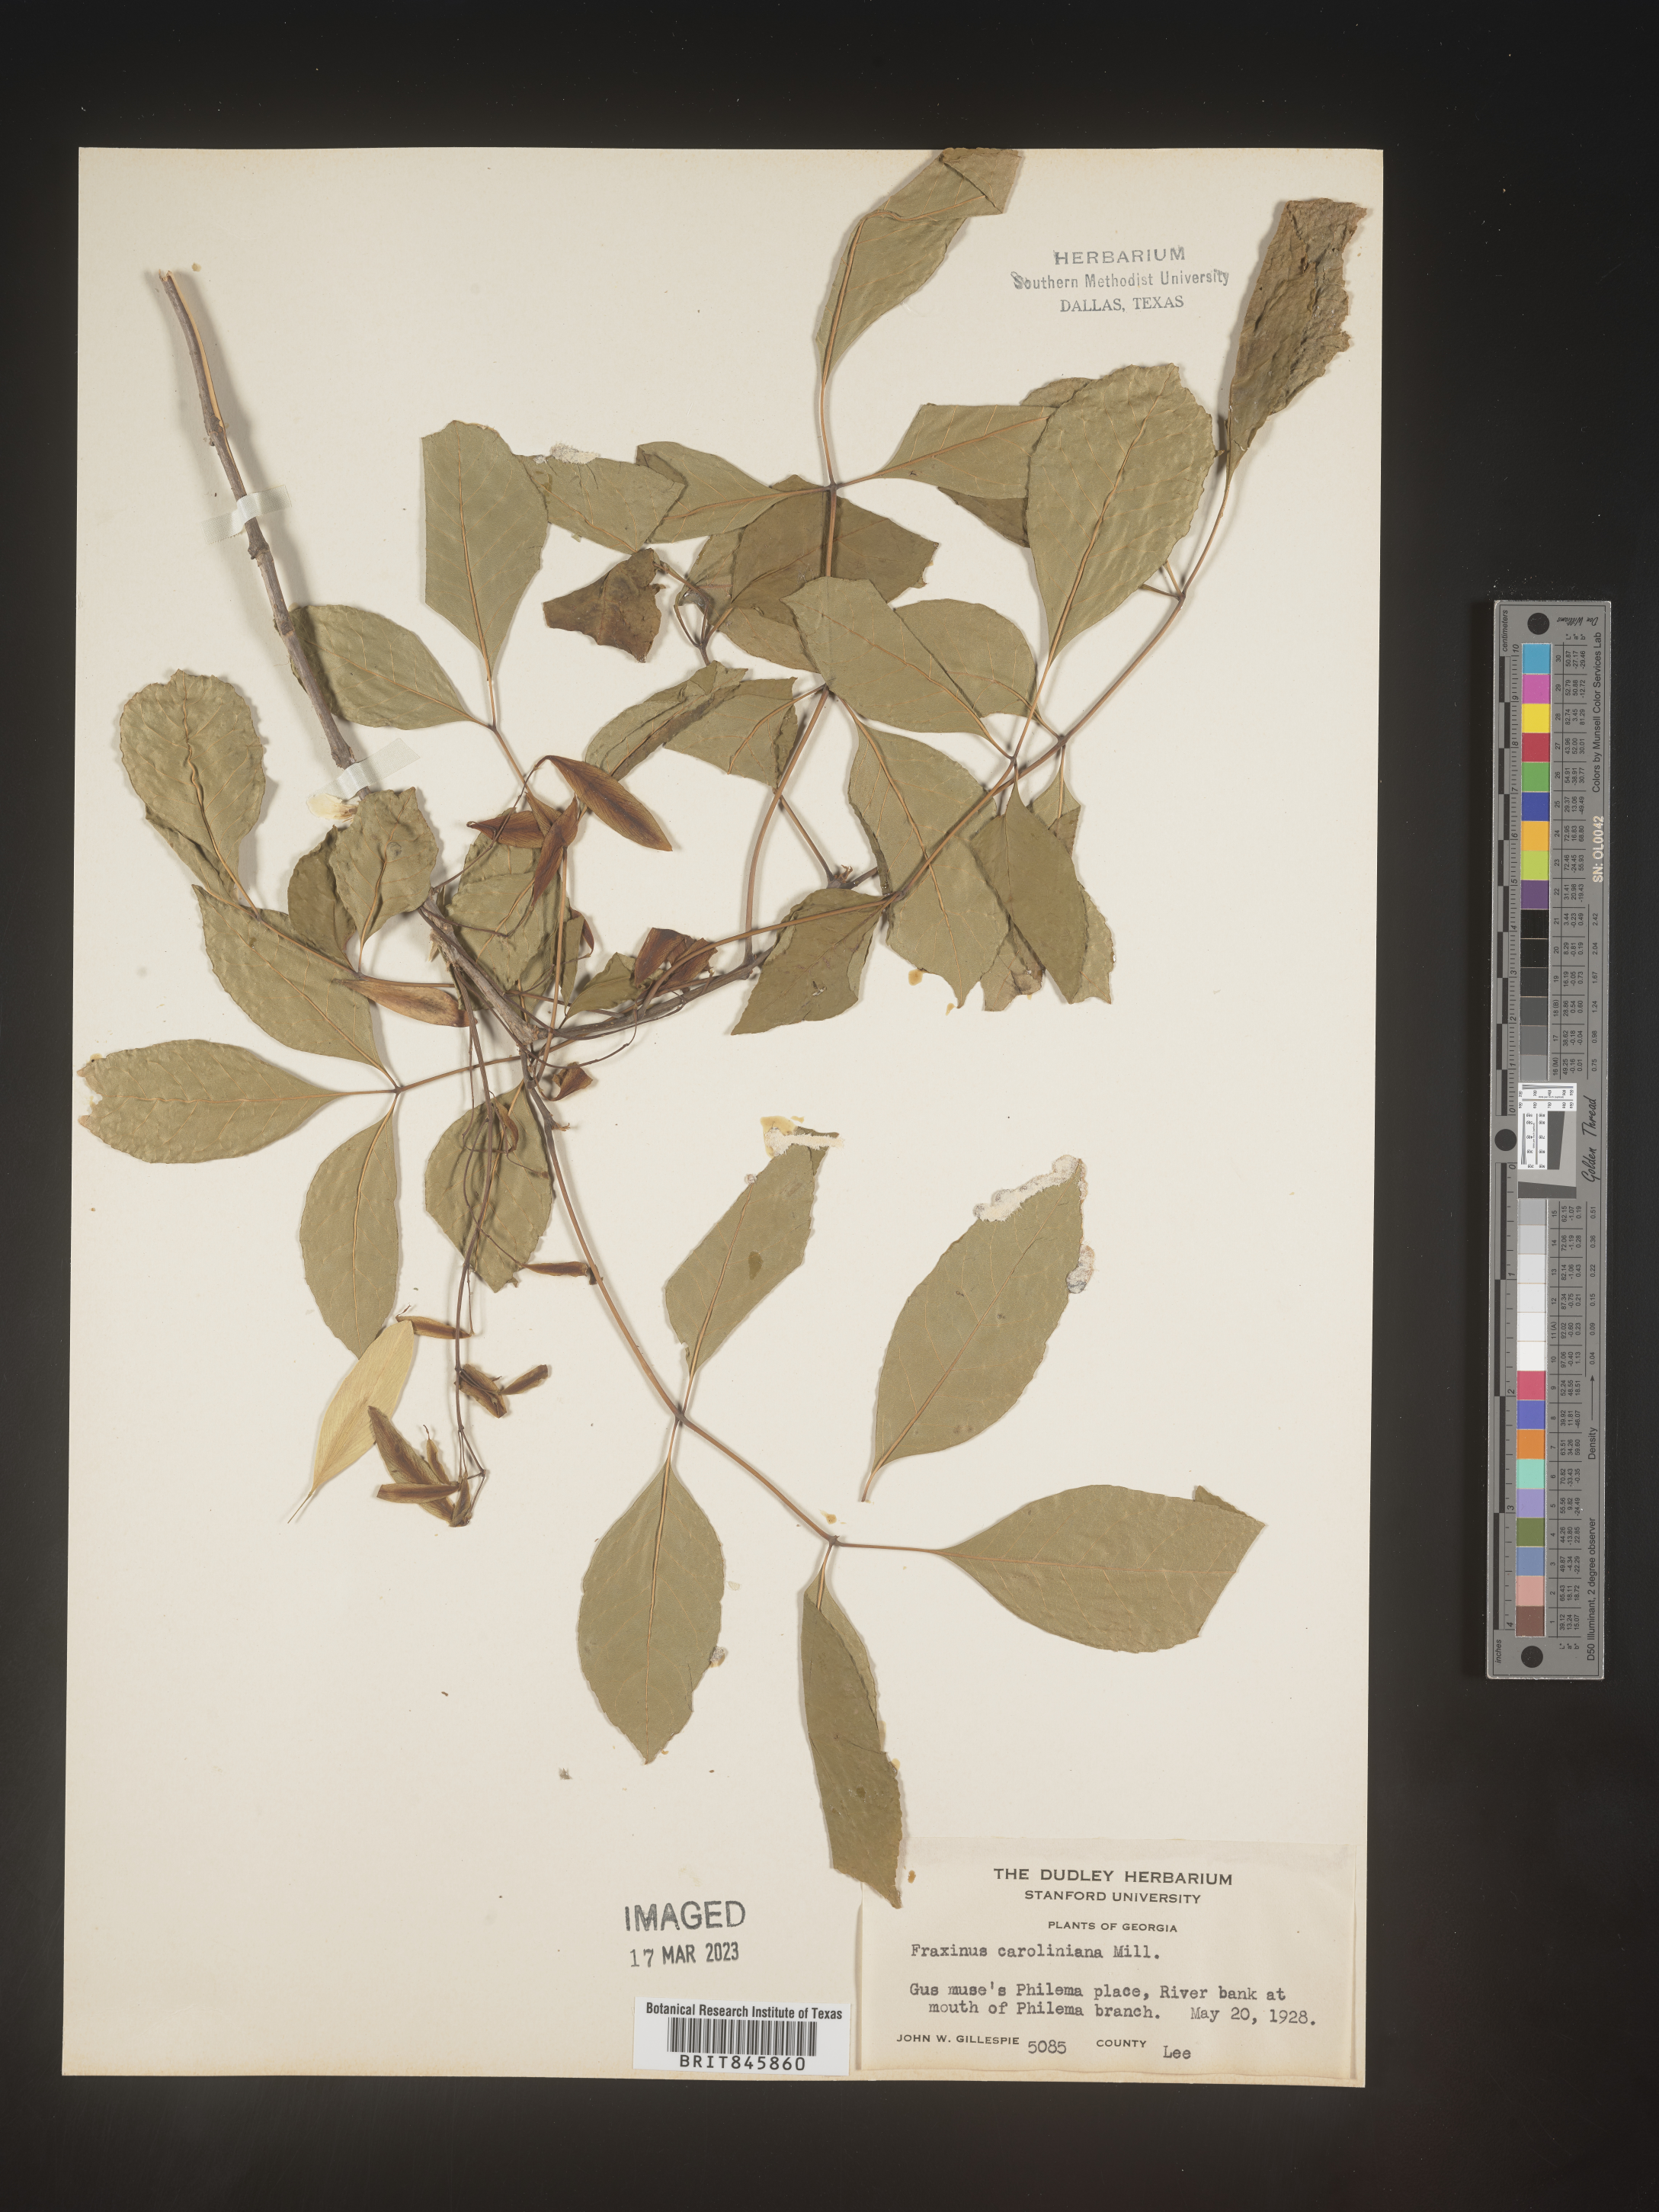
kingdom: Plantae
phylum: Tracheophyta
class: Magnoliopsida
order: Lamiales
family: Oleaceae
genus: Fraxinus
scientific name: Fraxinus caroliniana
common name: Carolina ash
